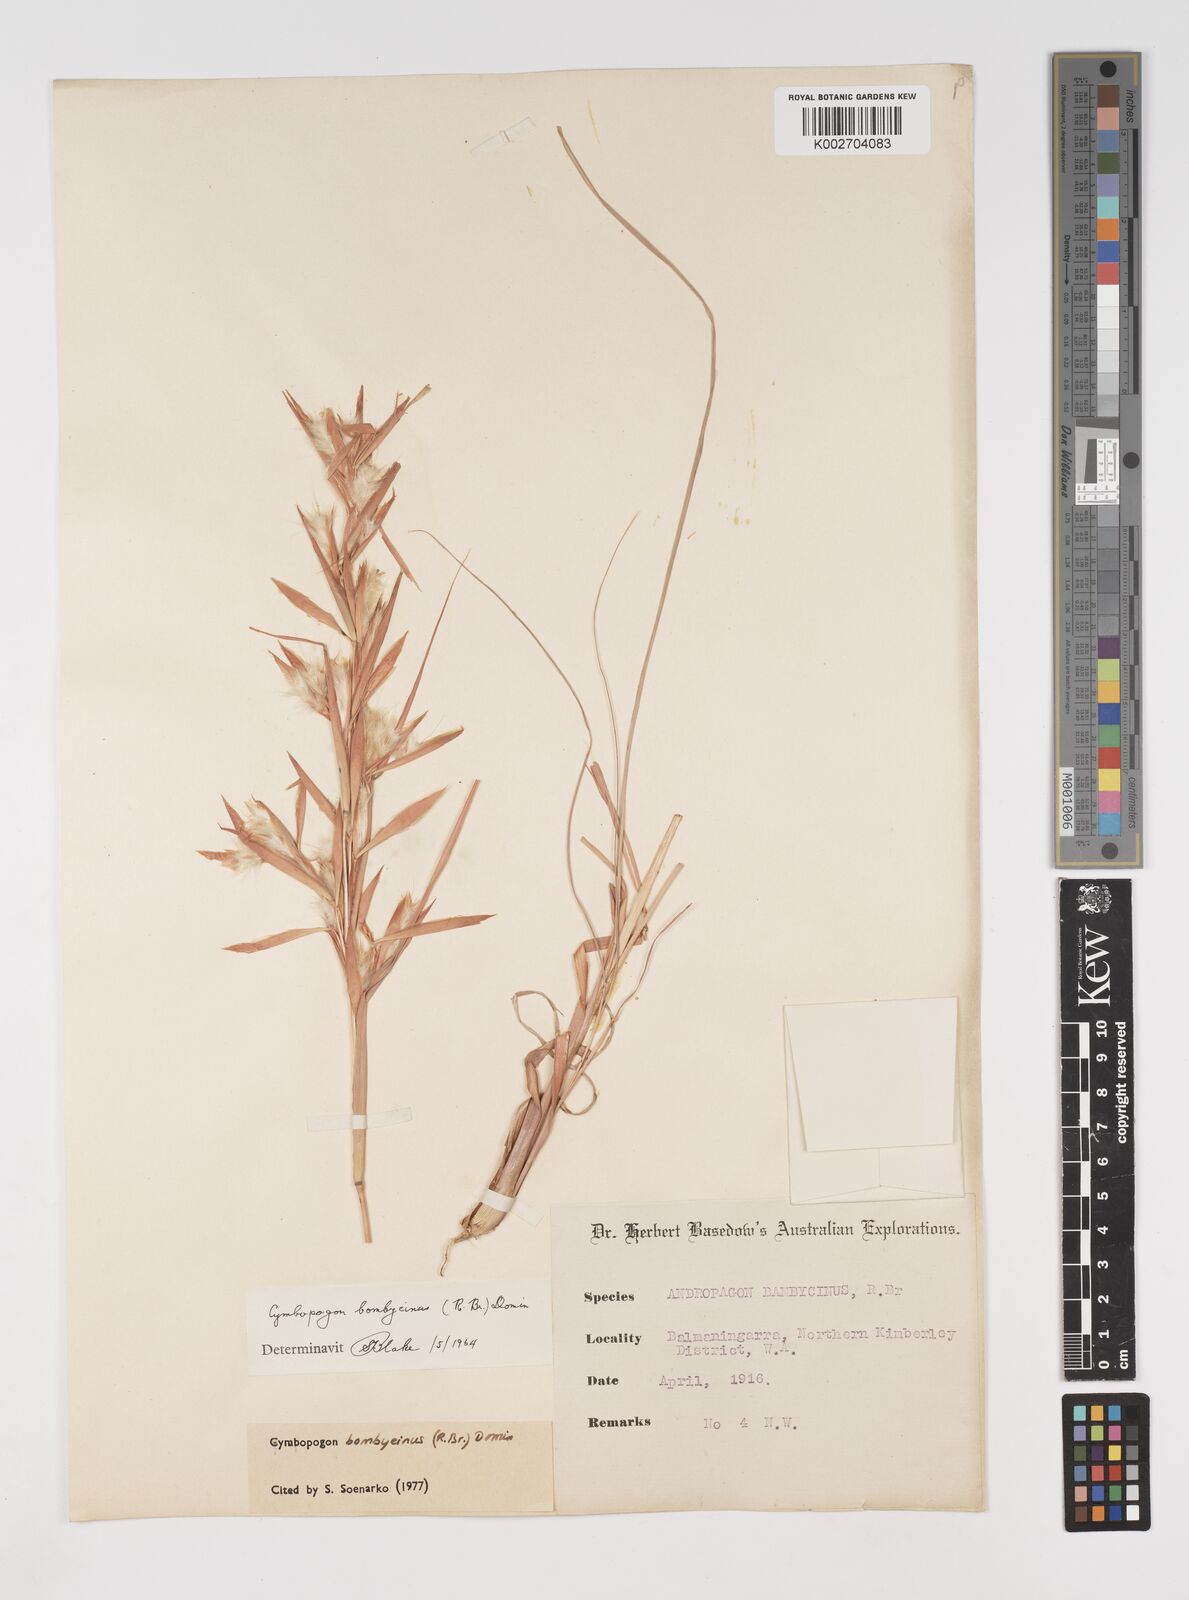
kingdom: Plantae
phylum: Tracheophyta
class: Liliopsida
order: Poales
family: Poaceae
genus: Cymbopogon
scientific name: Cymbopogon bombycinus
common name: Citronella grass
